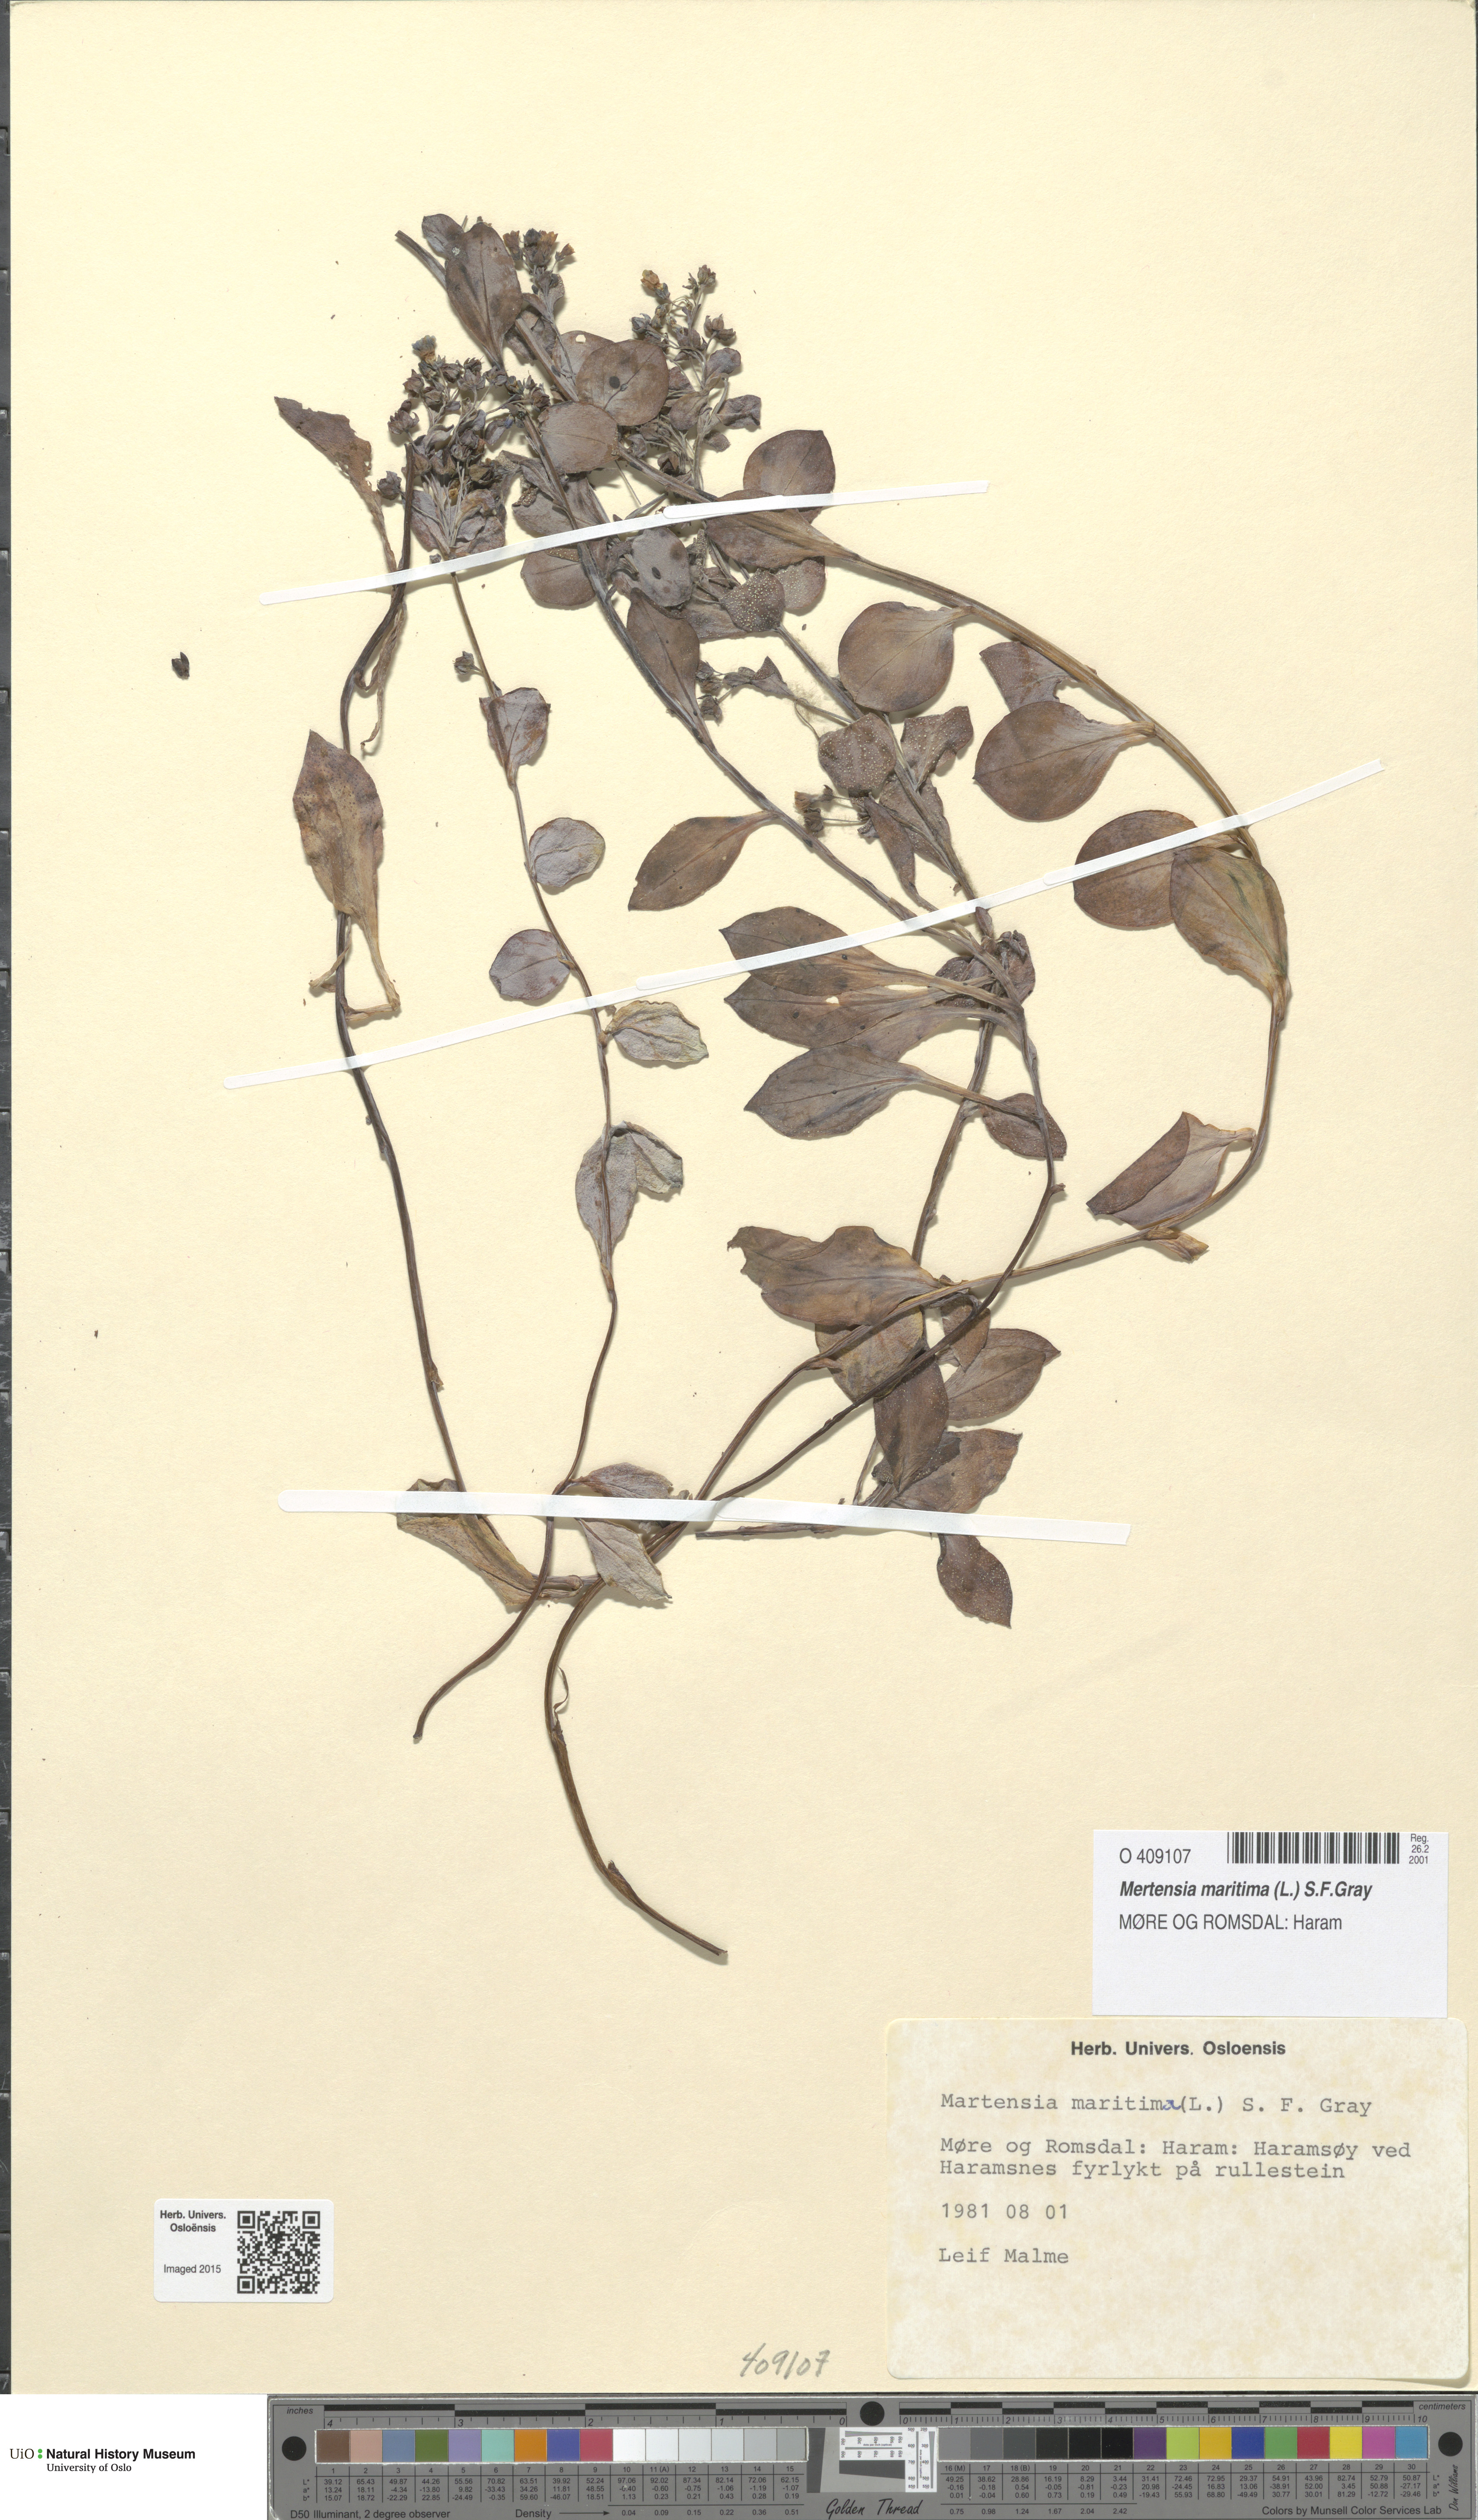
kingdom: Plantae
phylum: Tracheophyta
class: Magnoliopsida
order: Boraginales
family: Boraginaceae
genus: Mertensia
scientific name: Mertensia maritima
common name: Oysterplant
